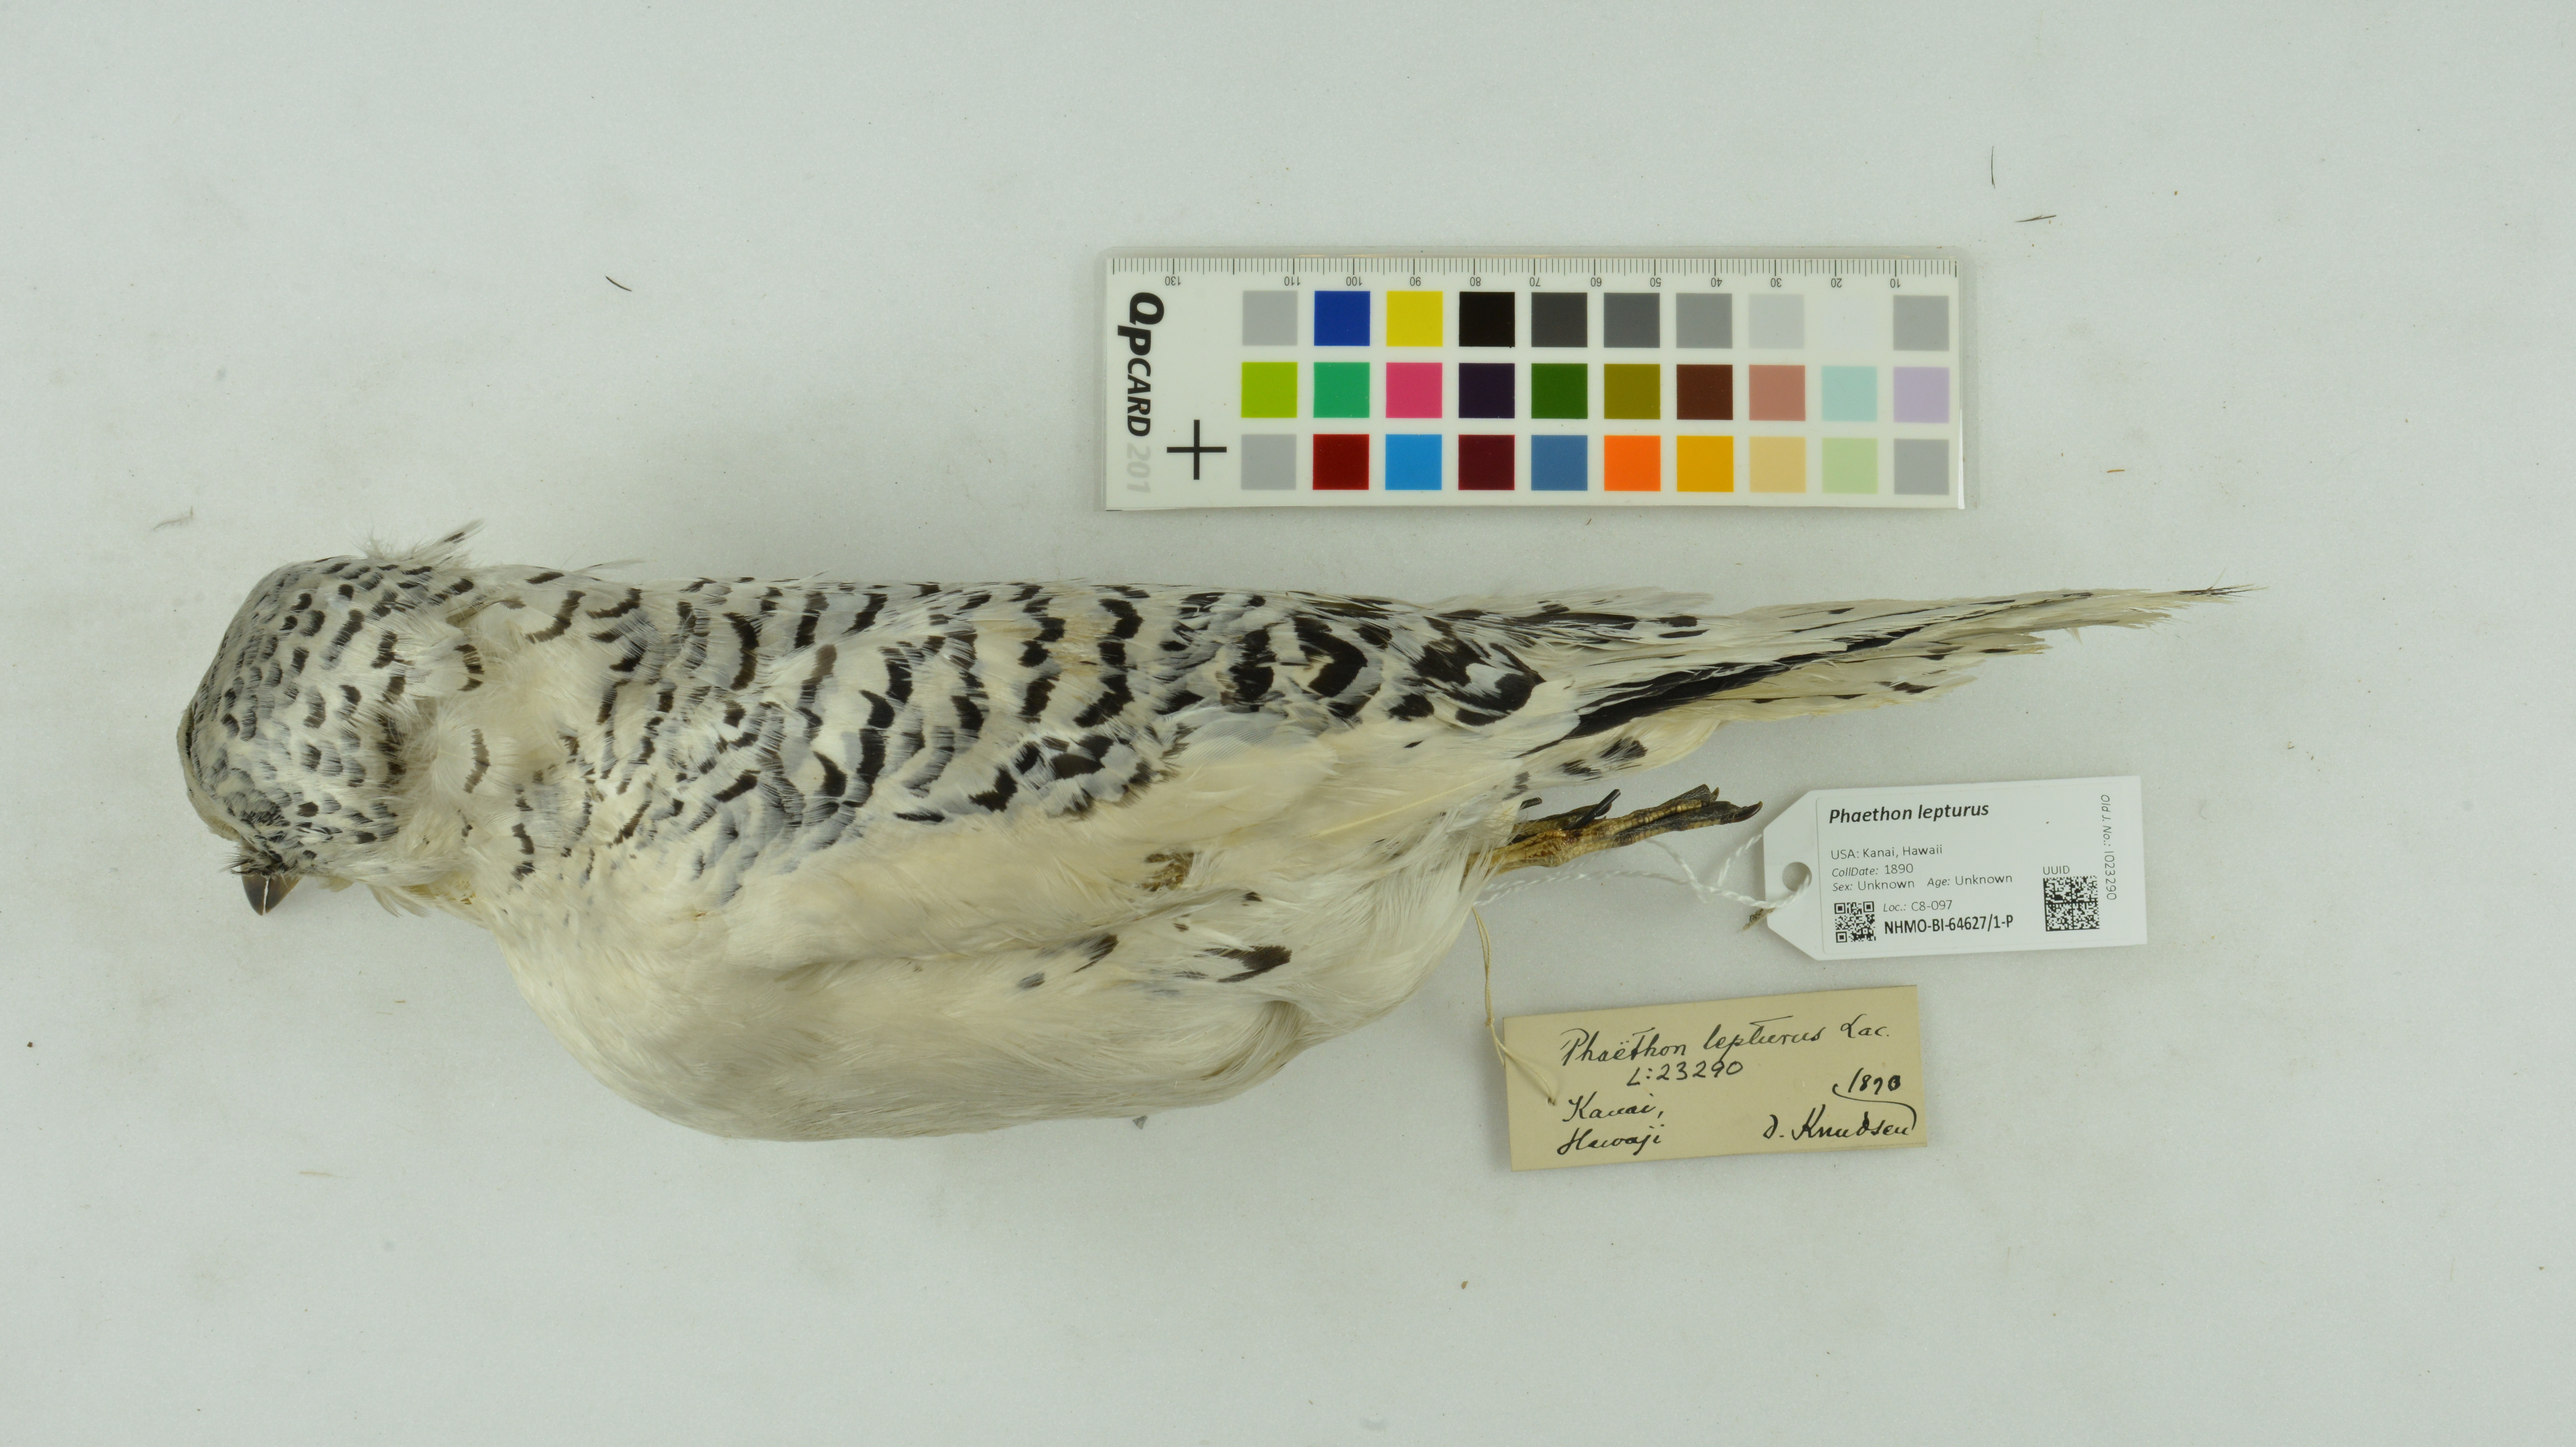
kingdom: Animalia
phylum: Chordata
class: Aves
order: Phaethontiformes
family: Phaethontidae
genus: Phaethon
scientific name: Phaethon lepturus
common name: White-tailed tropicbird
